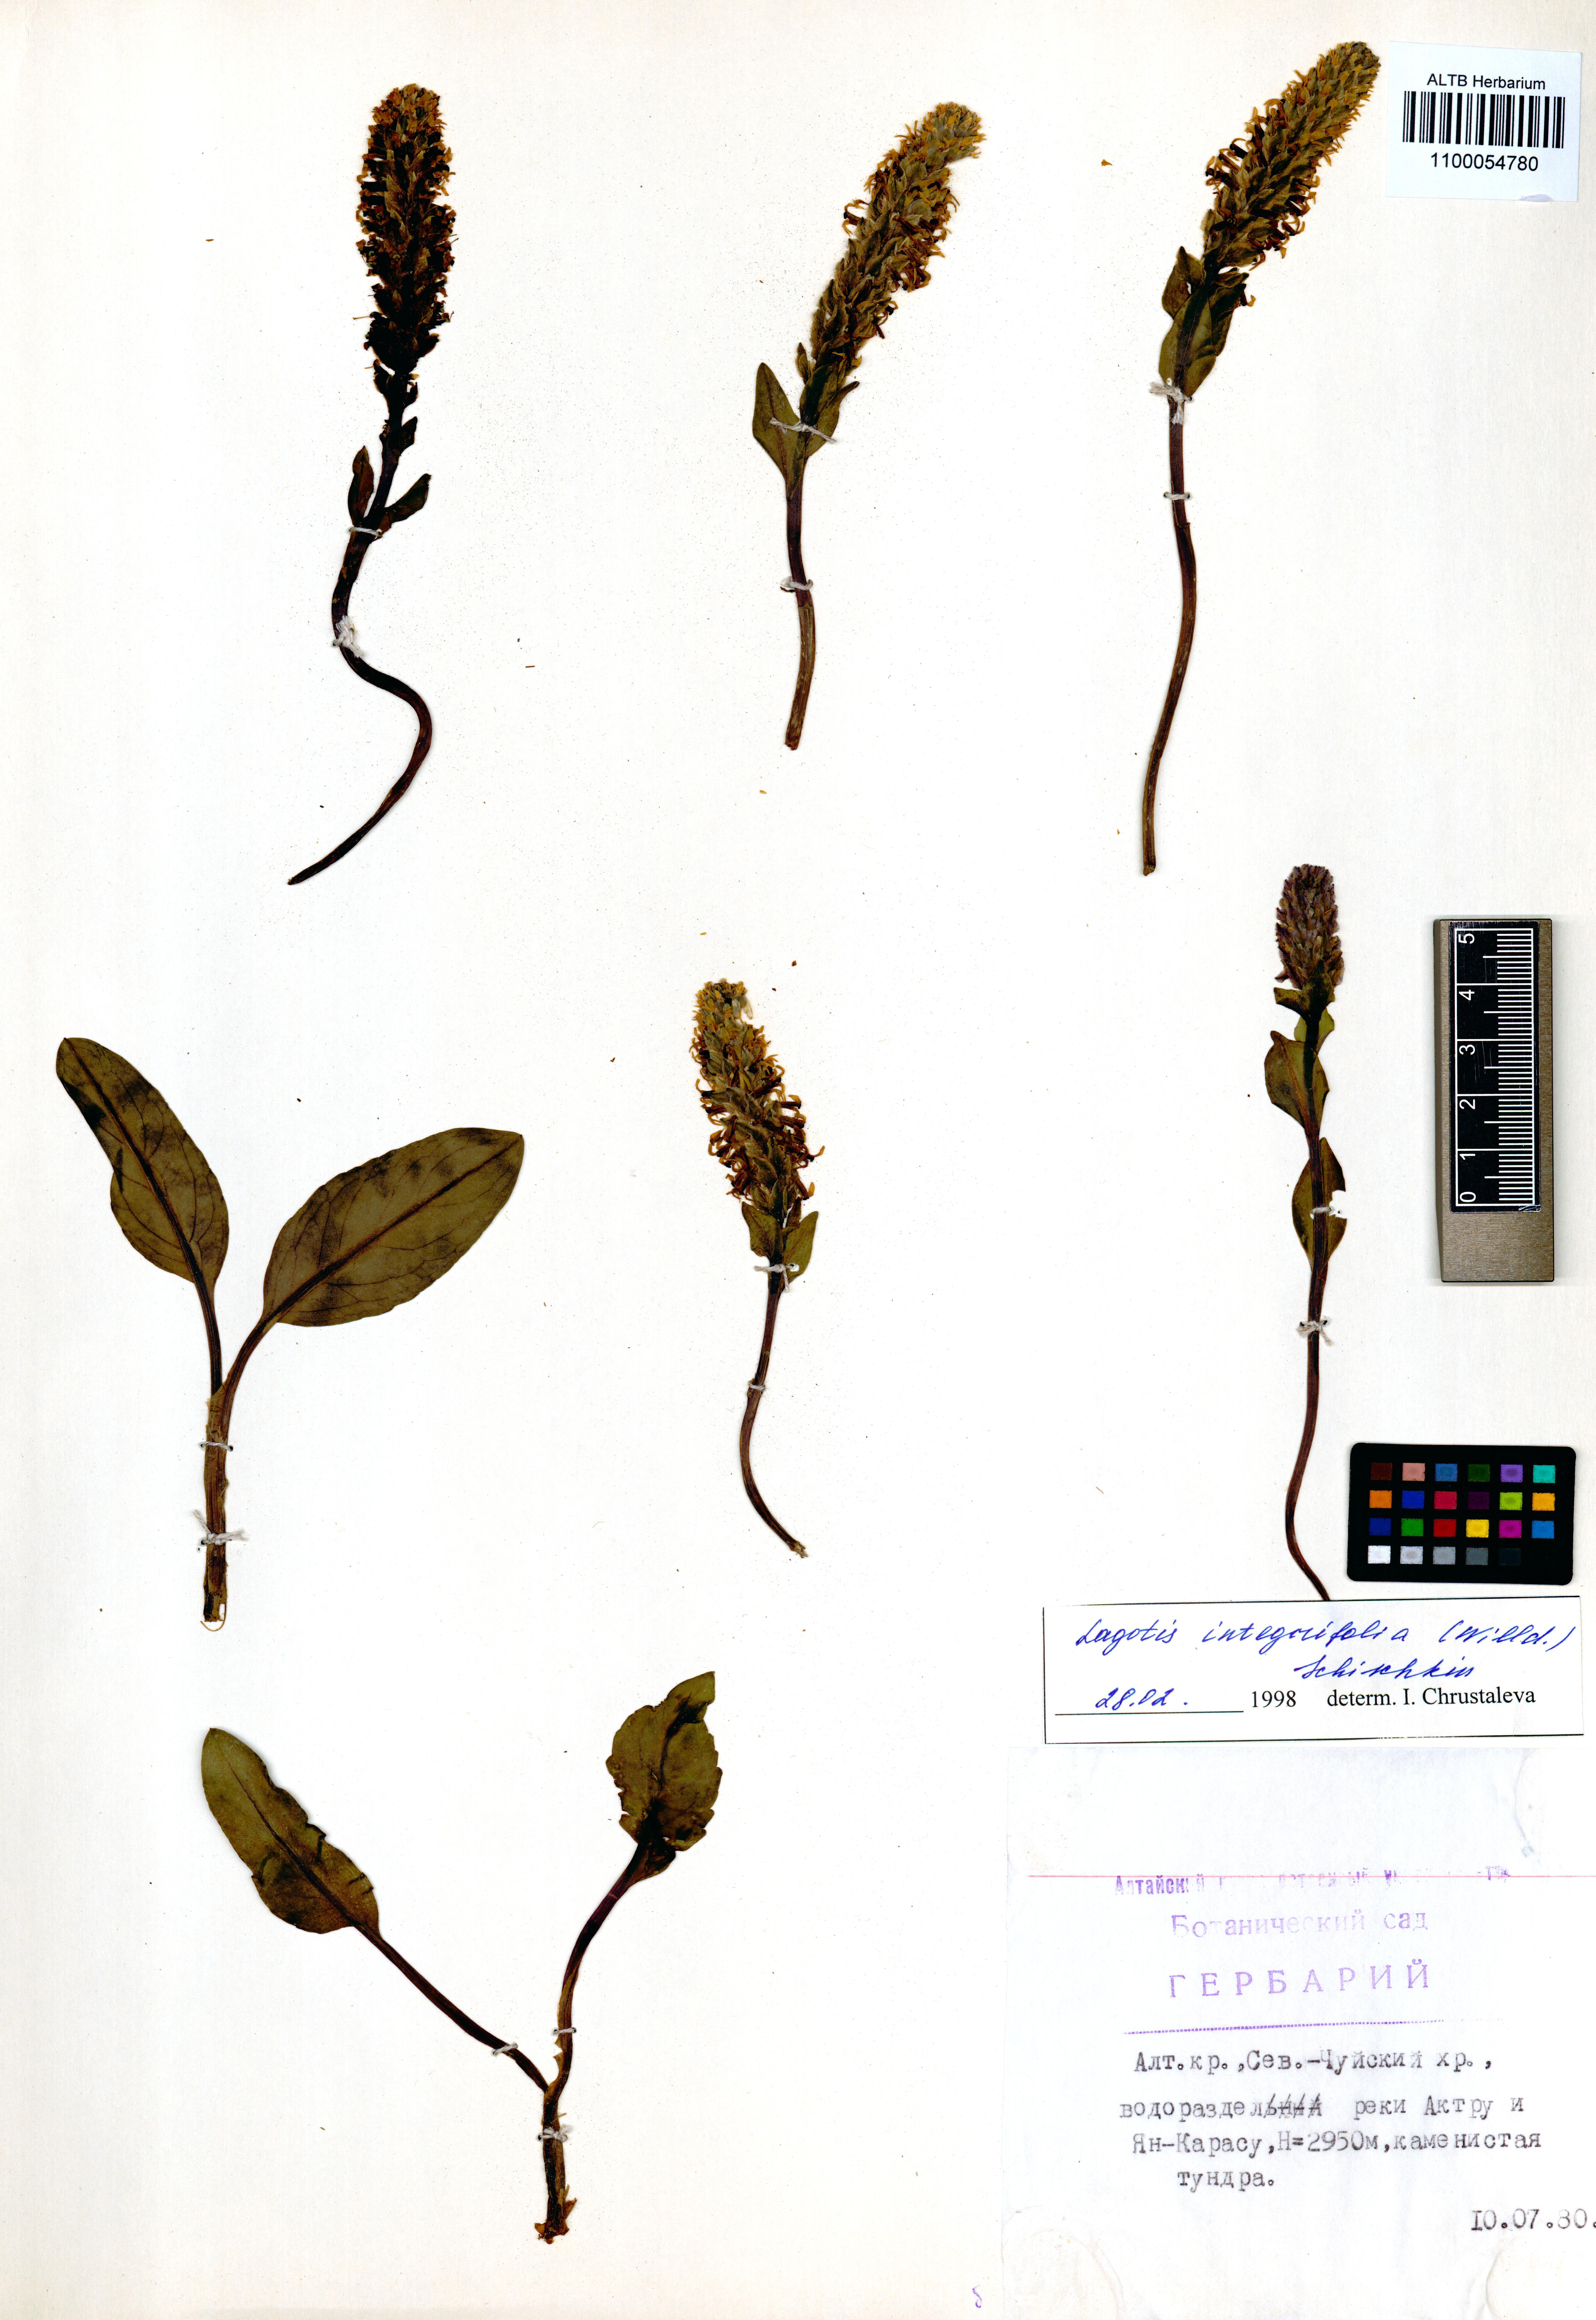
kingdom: Plantae
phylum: Tracheophyta
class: Magnoliopsida
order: Lamiales
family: Plantaginaceae
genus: Lagotis
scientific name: Lagotis integrifolia
